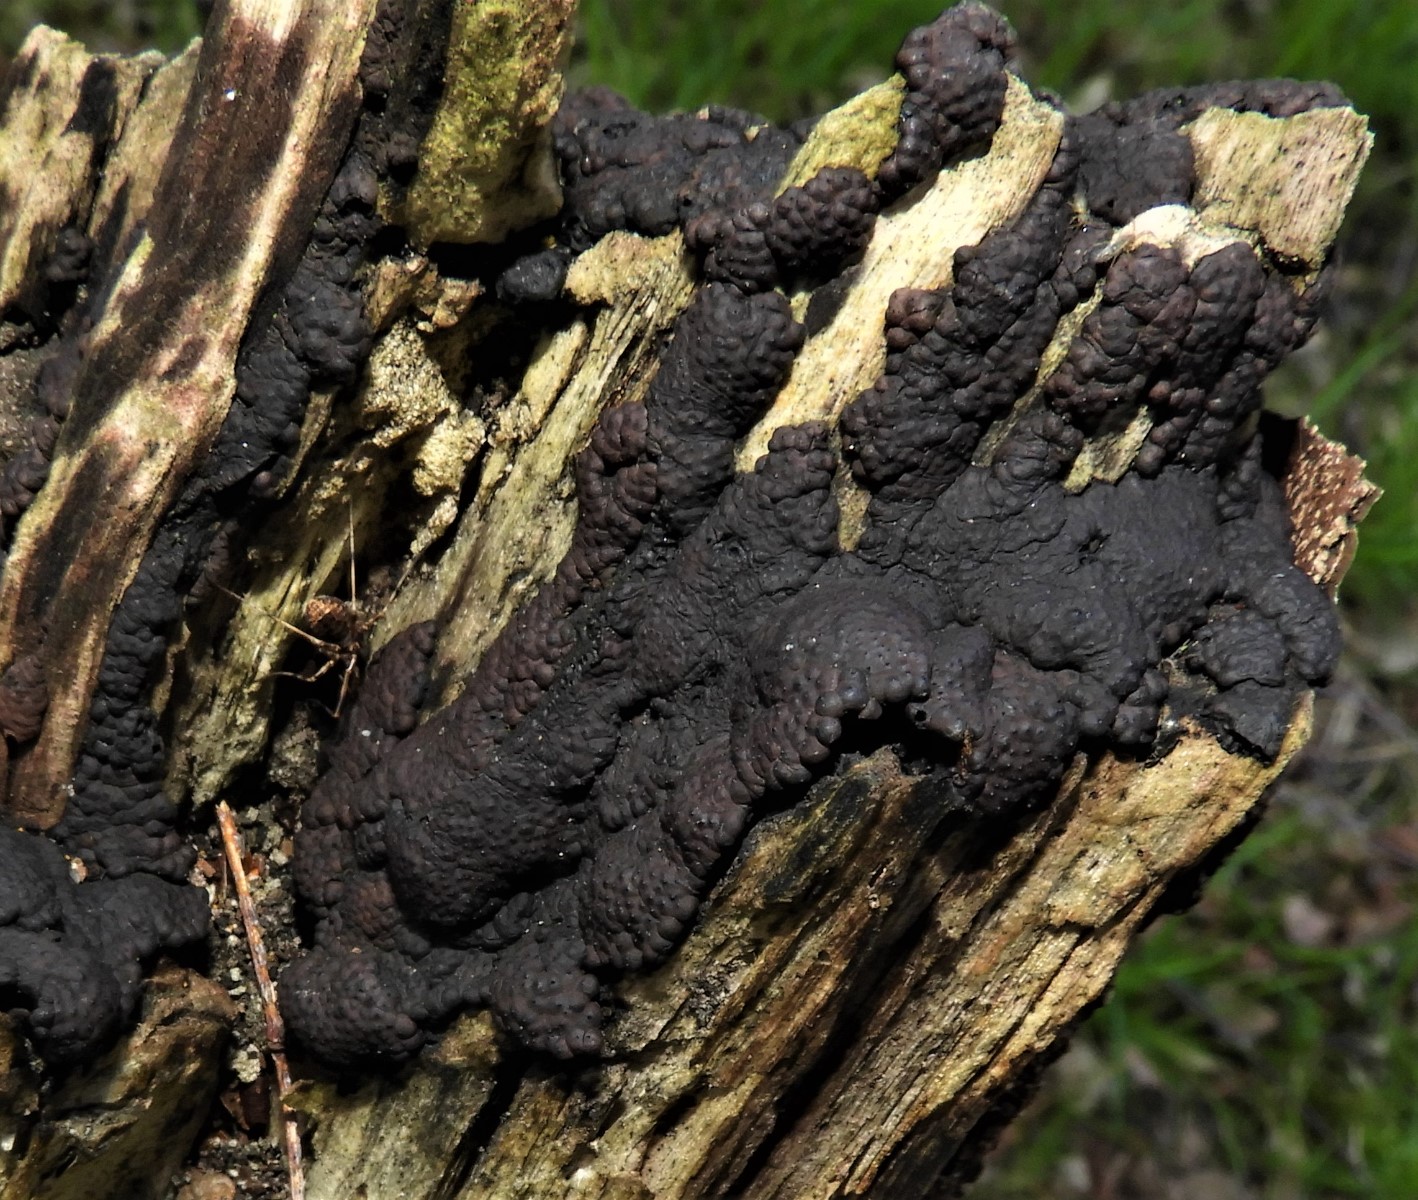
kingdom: Fungi
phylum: Ascomycota
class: Sordariomycetes
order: Xylariales
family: Hypoxylaceae
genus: Jackrogersella
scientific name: Jackrogersella multiformis
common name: foranderlig kulbær
